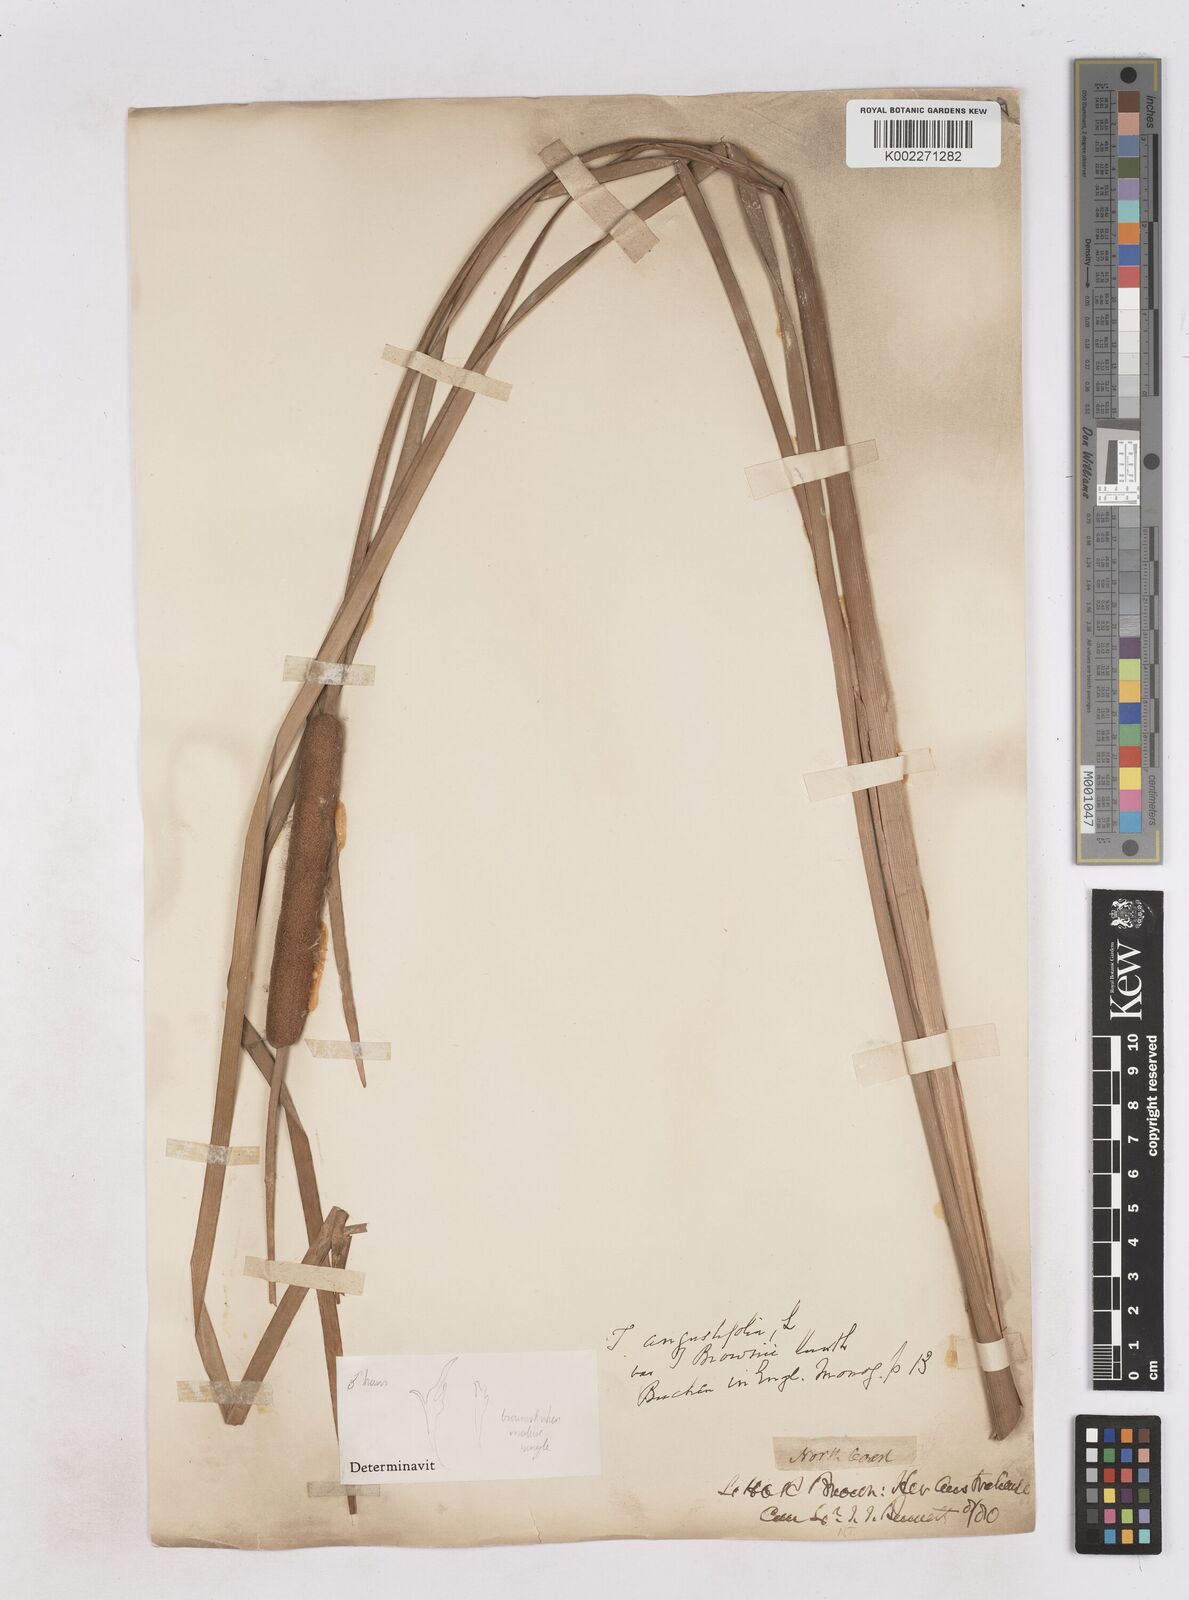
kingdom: Plantae
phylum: Tracheophyta
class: Liliopsida
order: Poales
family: Typhaceae
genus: Typha
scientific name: Typha domingensis
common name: Southern cattail
